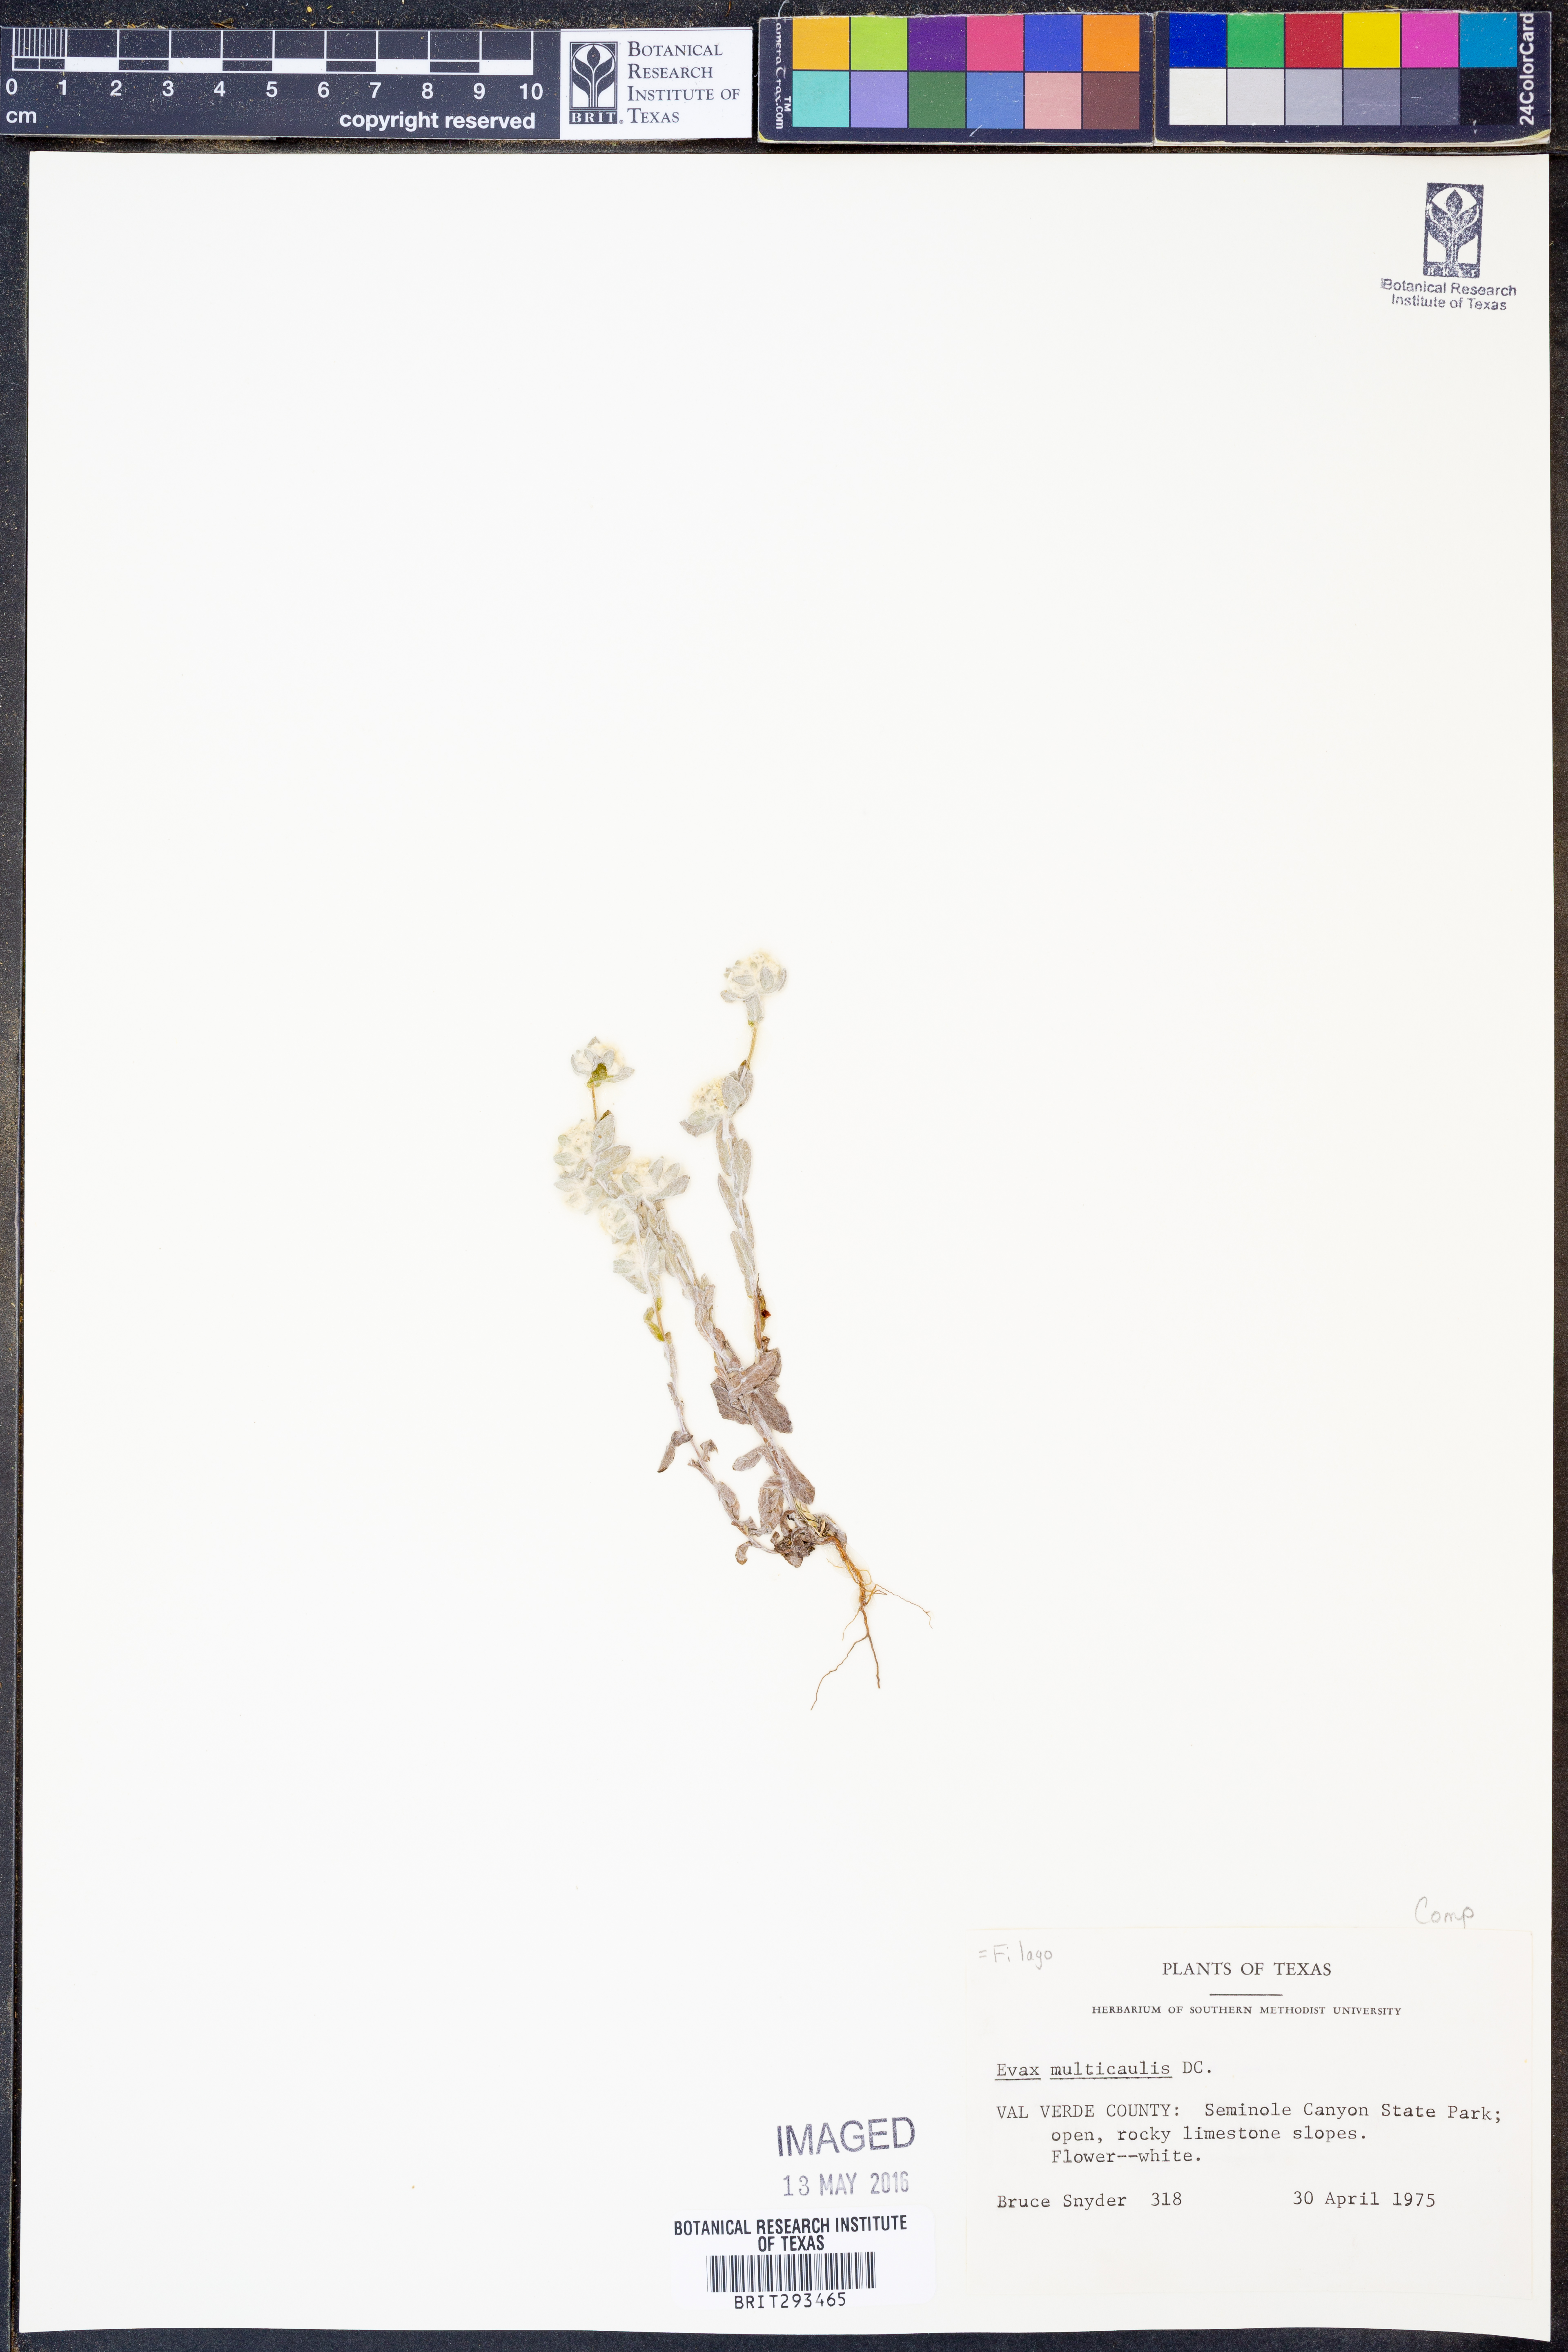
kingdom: Plantae
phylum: Tracheophyta
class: Magnoliopsida
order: Asterales
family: Asteraceae
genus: Bombycilaena
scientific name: Bombycilaena erecta
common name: Micropus
